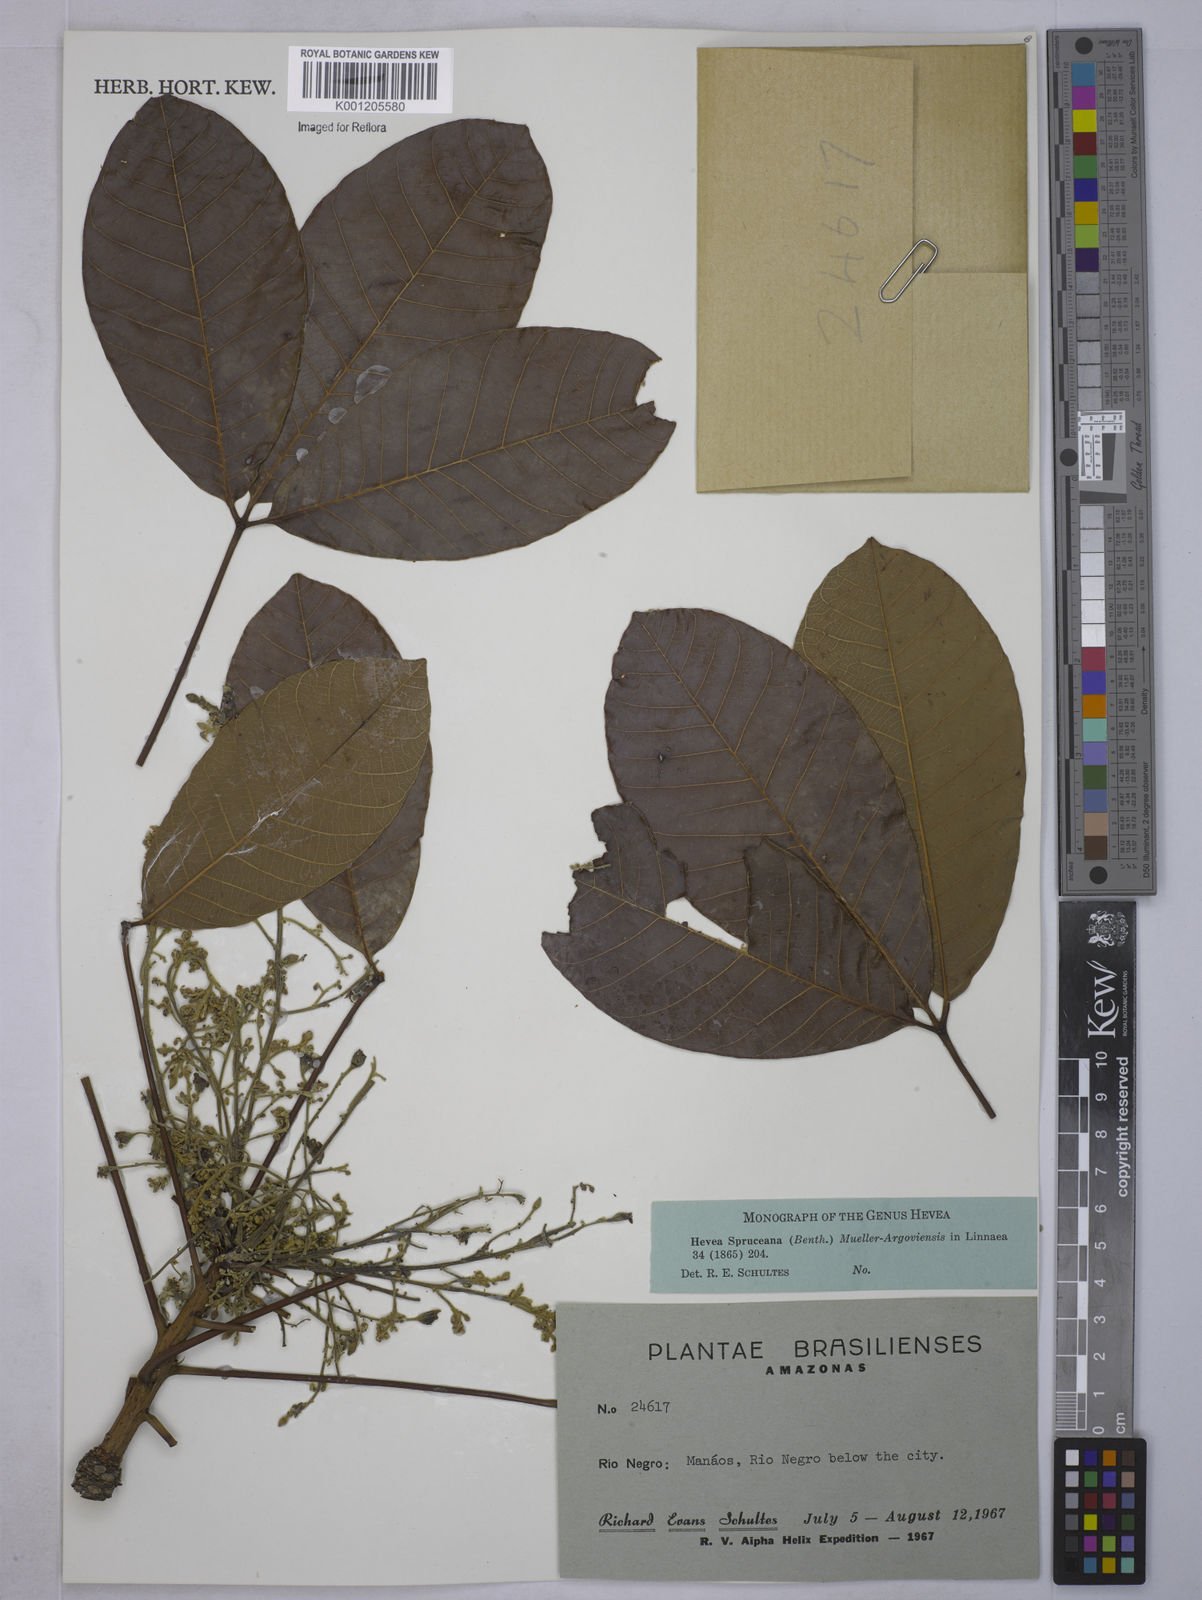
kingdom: Plantae
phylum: Tracheophyta
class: Magnoliopsida
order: Malpighiales
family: Euphorbiaceae
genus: Hevea
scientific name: Hevea
